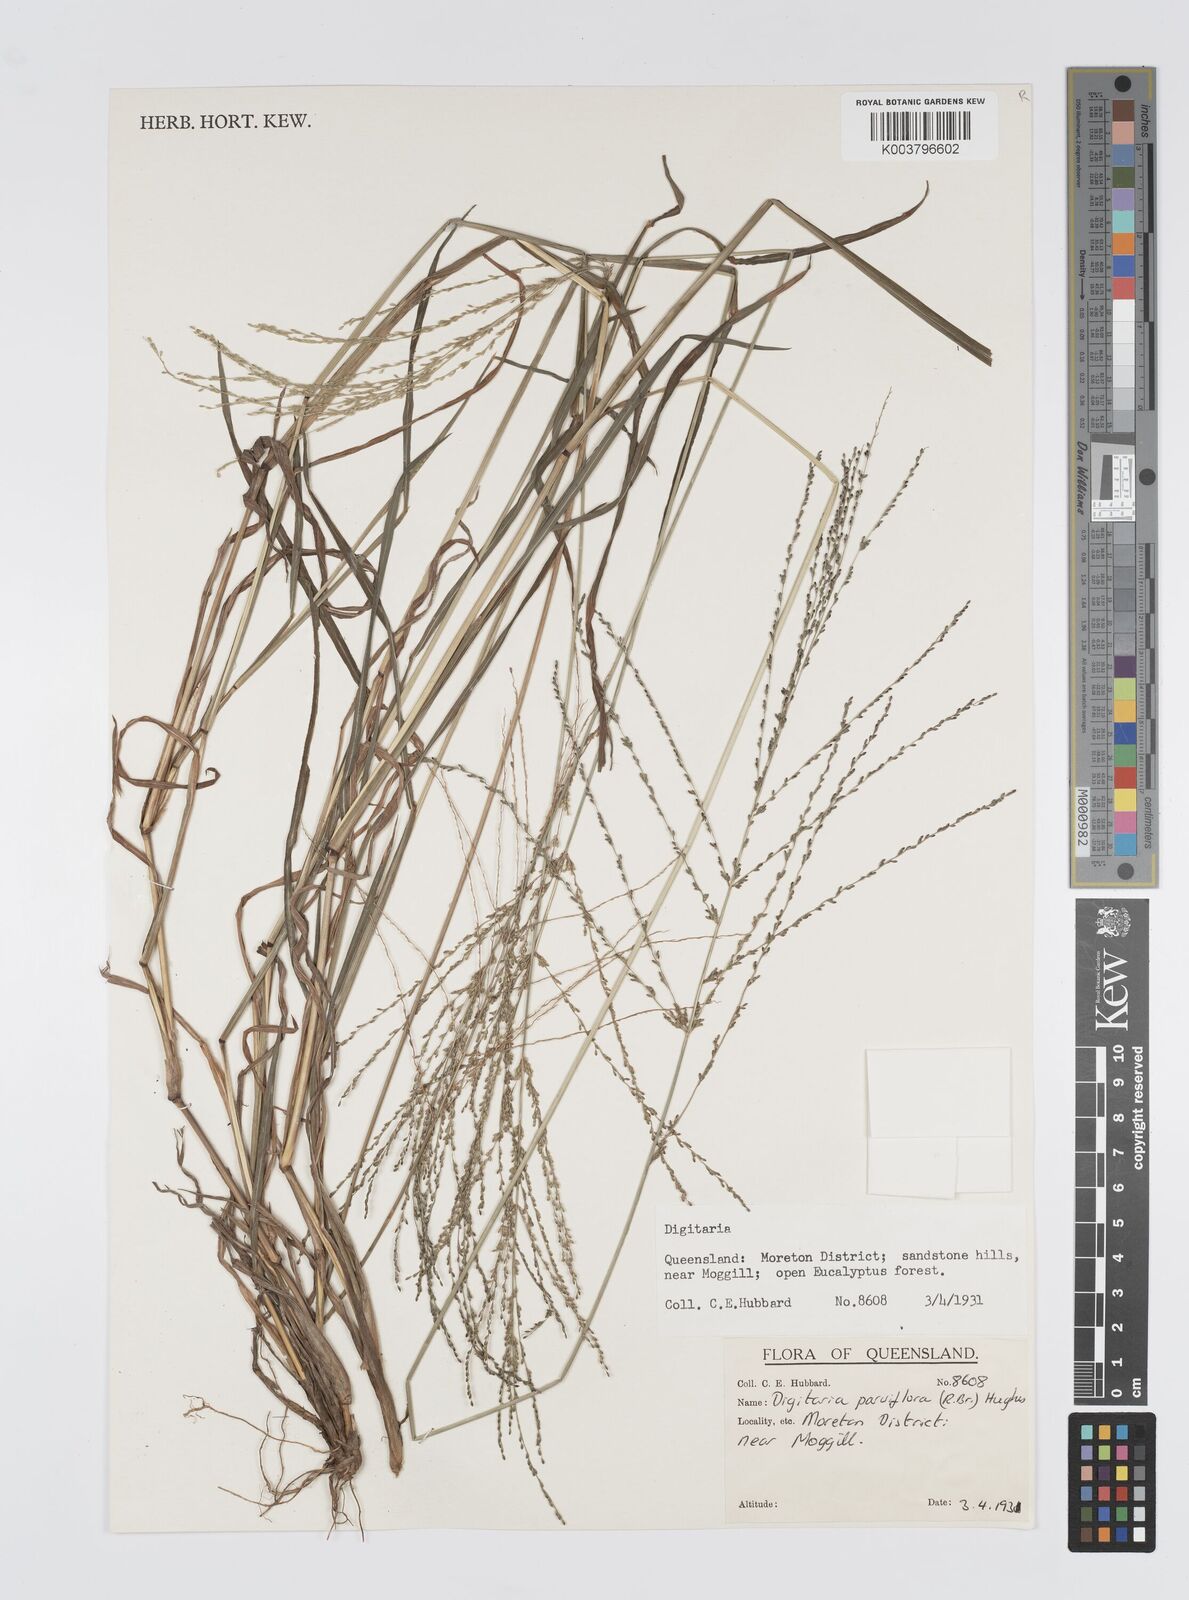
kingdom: Plantae
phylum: Tracheophyta
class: Liliopsida
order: Poales
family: Poaceae
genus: Digitaria
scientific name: Digitaria parviflora
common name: Small-flower finger grass
